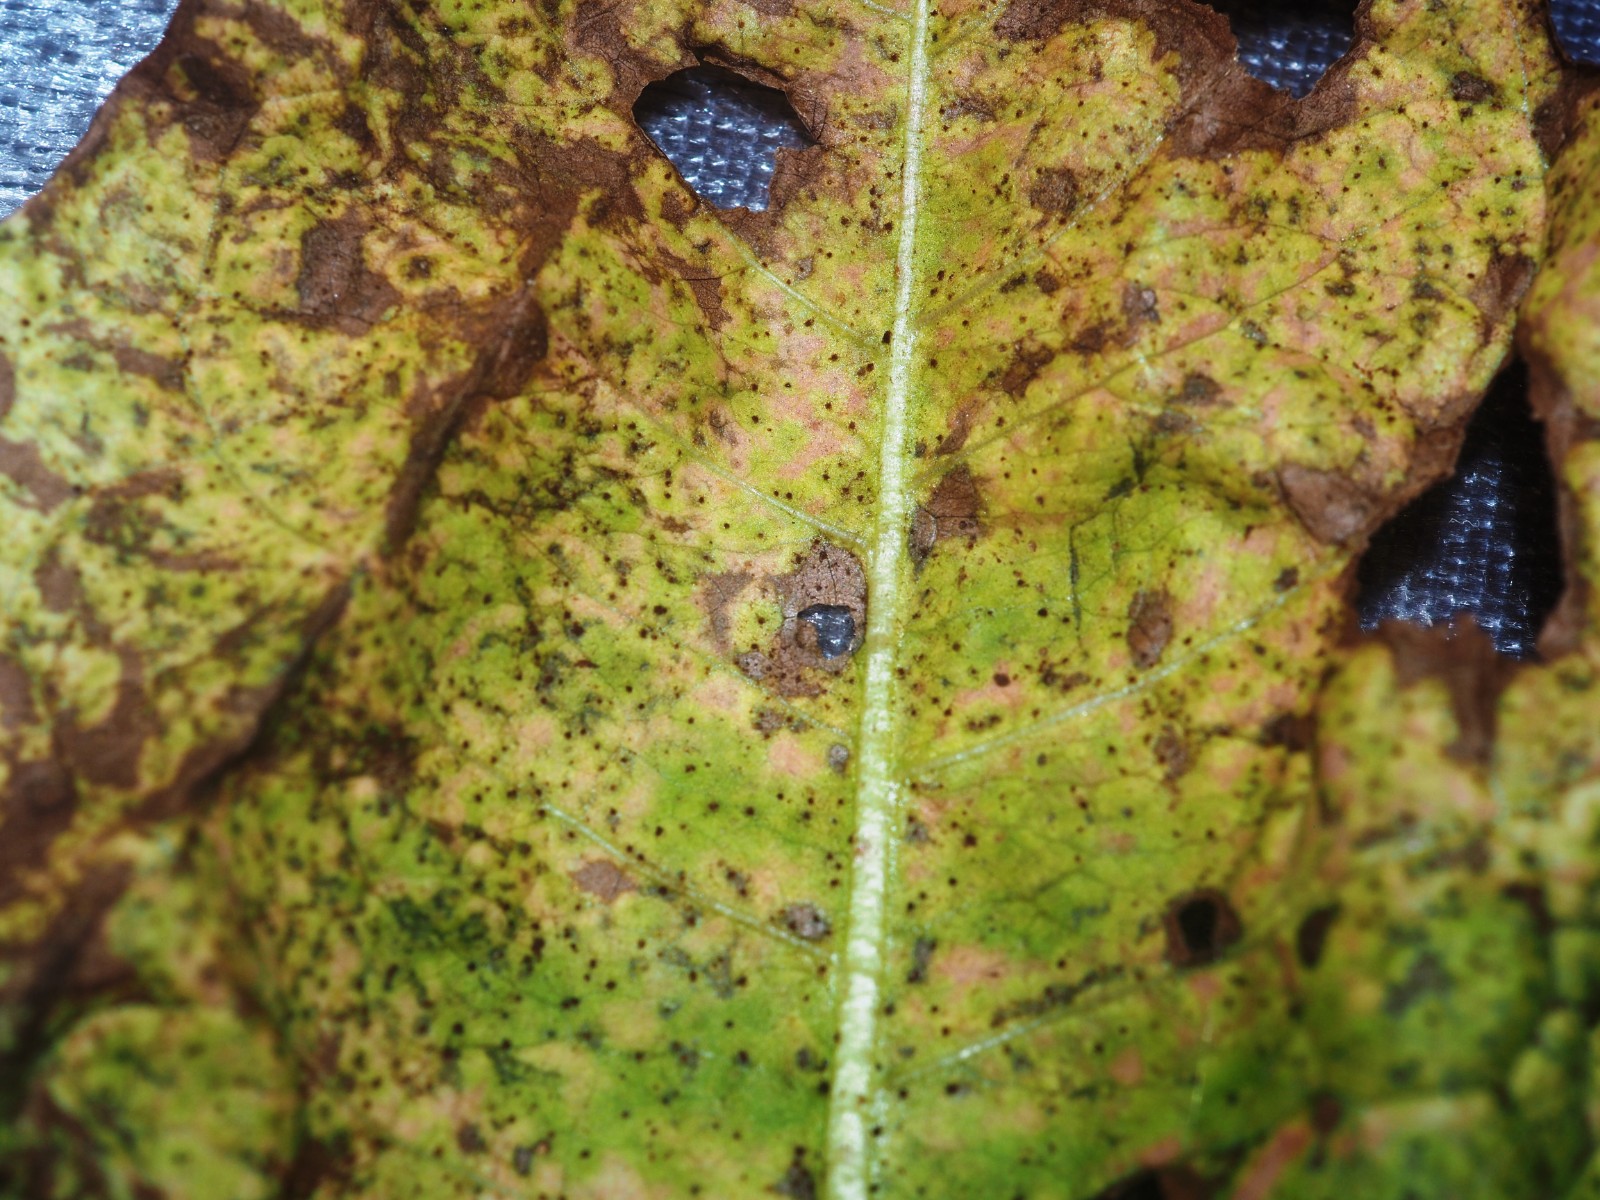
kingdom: Fungi
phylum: Basidiomycota
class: Pucciniomycetes
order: Pucciniales
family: Pucciniaceae
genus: Puccinia
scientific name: Puccinia hieracii
